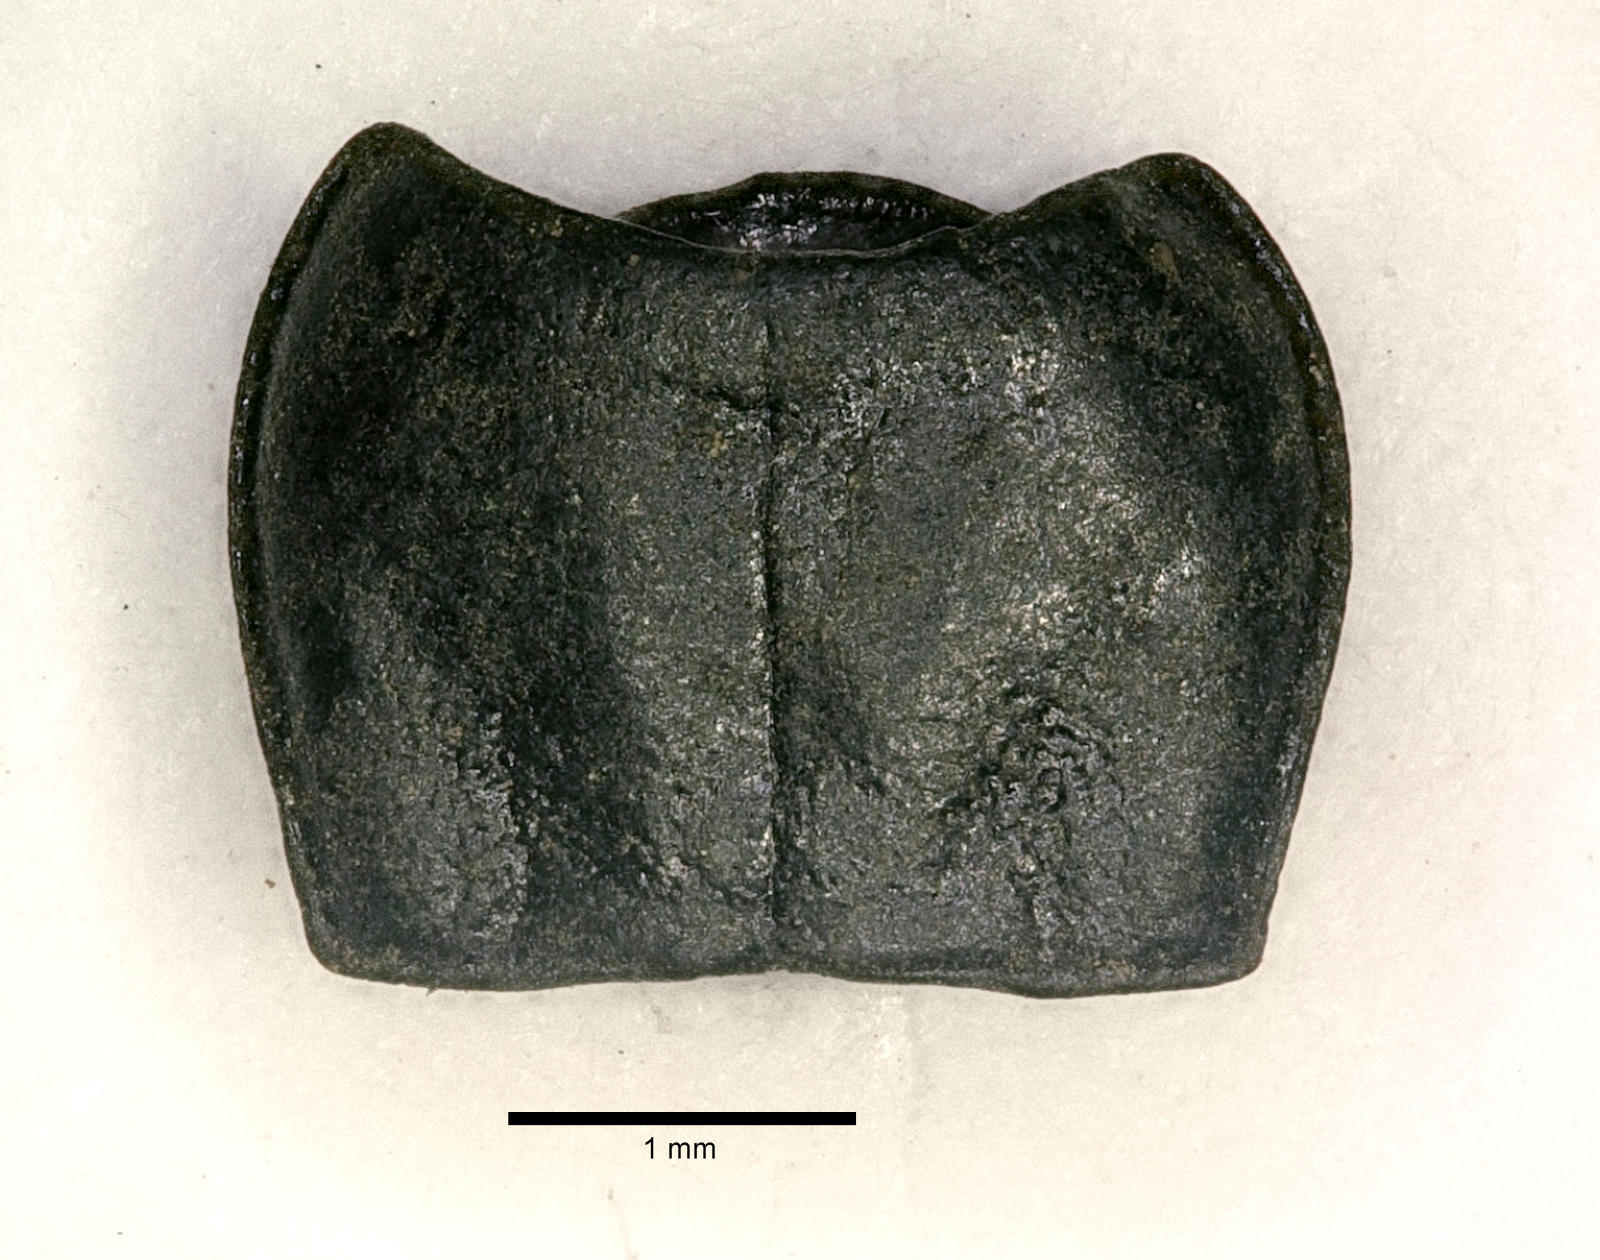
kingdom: Animalia
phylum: Arthropoda
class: Insecta
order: Coleoptera
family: Carabidae
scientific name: Carabidae
